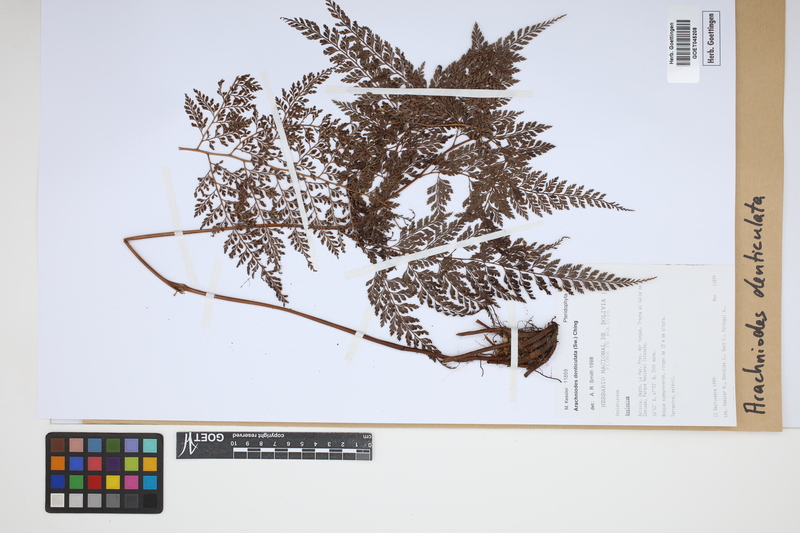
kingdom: Plantae
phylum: Tracheophyta
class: Polypodiopsida
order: Polypodiales
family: Dryopteridaceae
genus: Arachniodes
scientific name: Arachniodes denticulata
